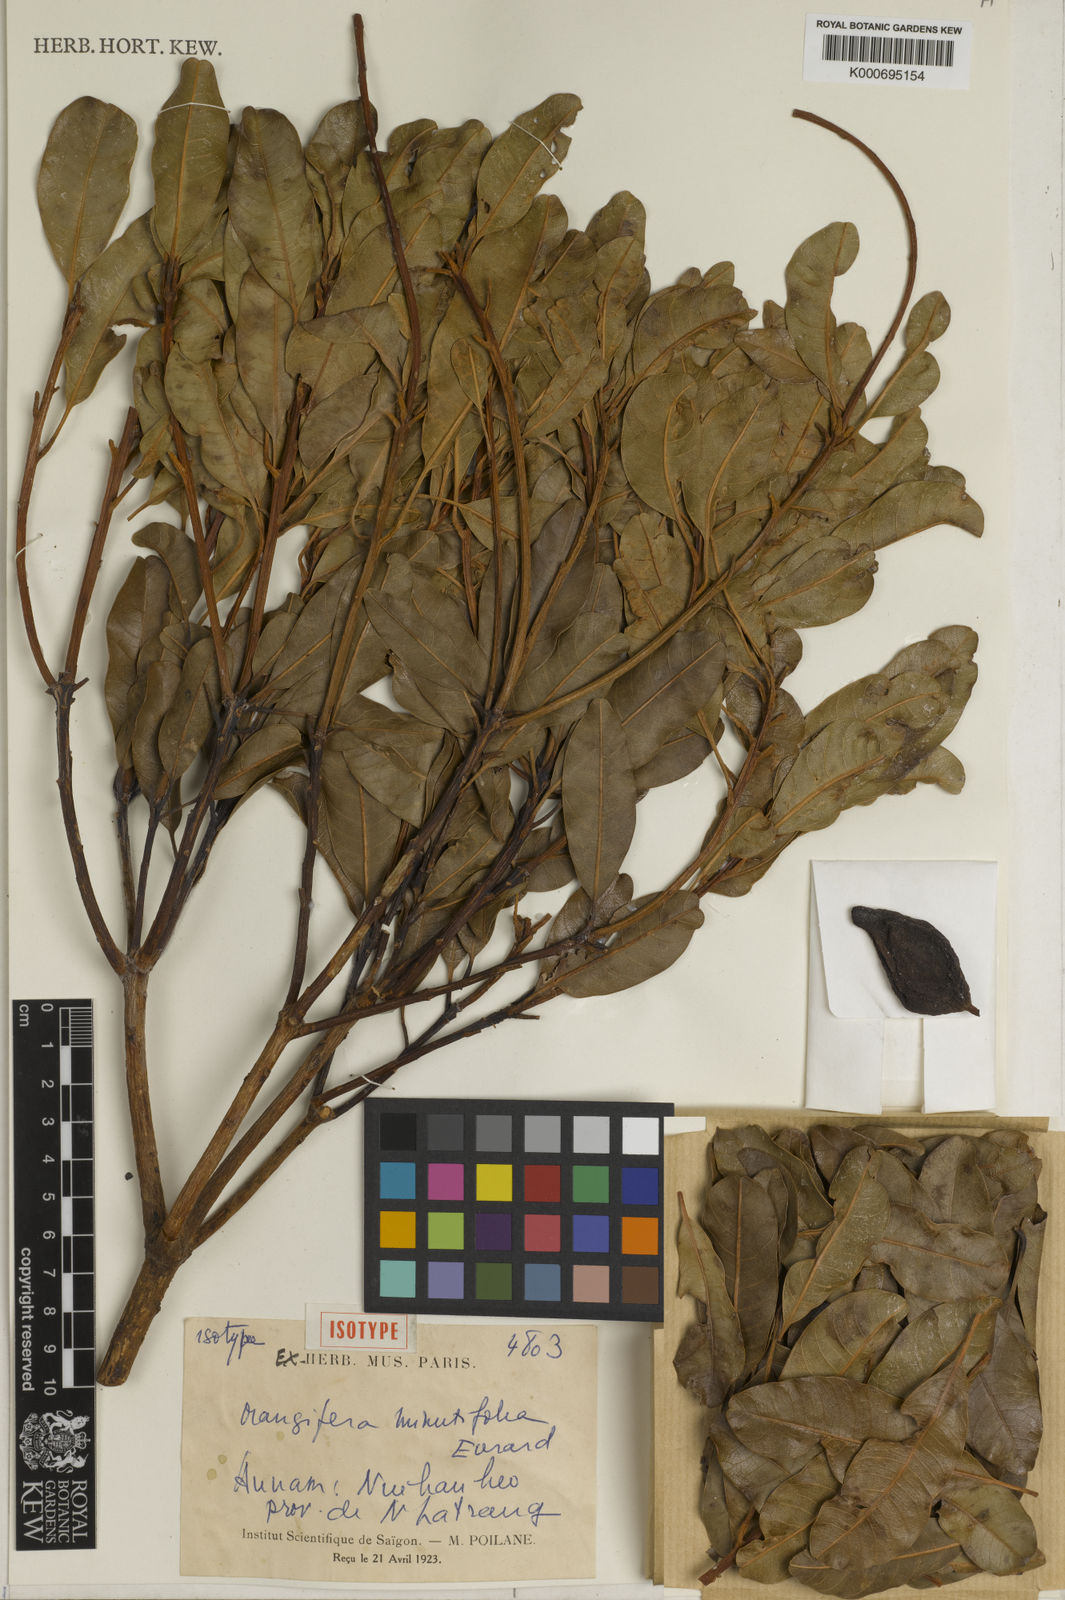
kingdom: Plantae
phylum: Tracheophyta
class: Magnoliopsida
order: Sapindales
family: Anacardiaceae
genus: Mangifera
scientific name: Mangifera minutifolia
